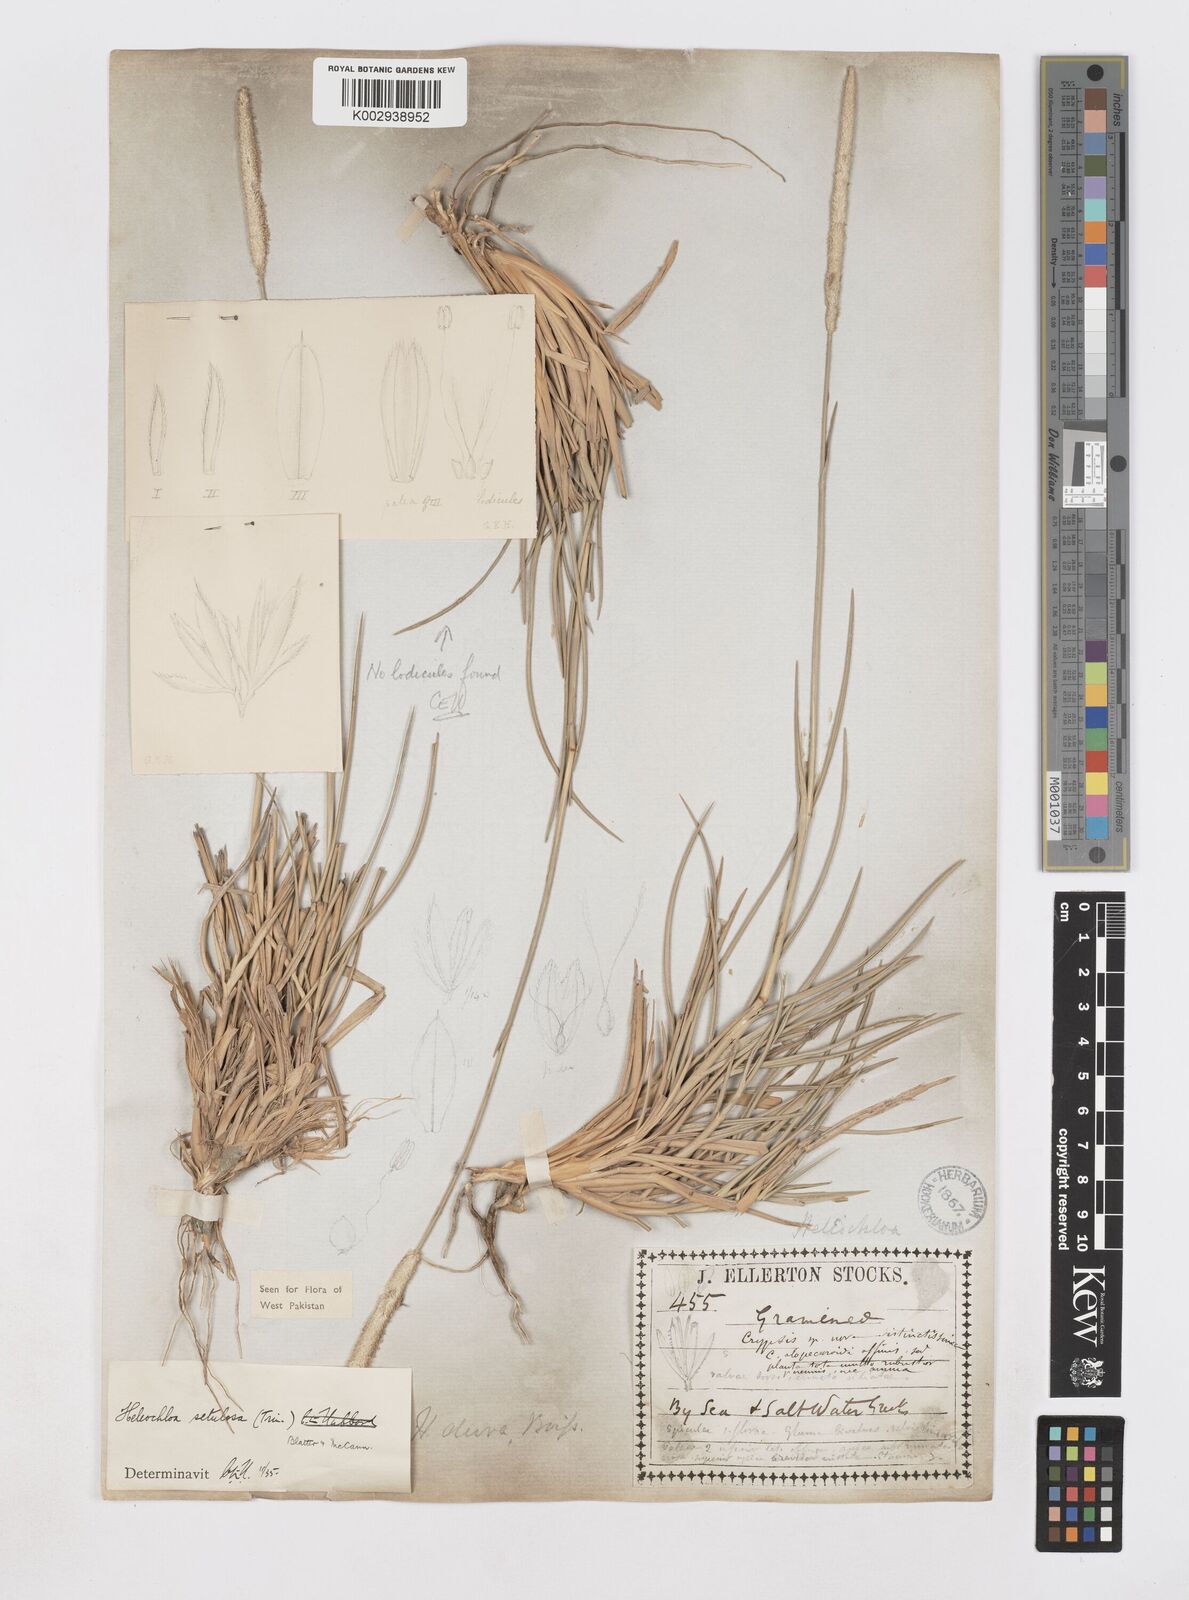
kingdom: Plantae
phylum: Tracheophyta
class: Liliopsida
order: Poales
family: Poaceae
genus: Urochondra
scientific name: Urochondra setulosa
